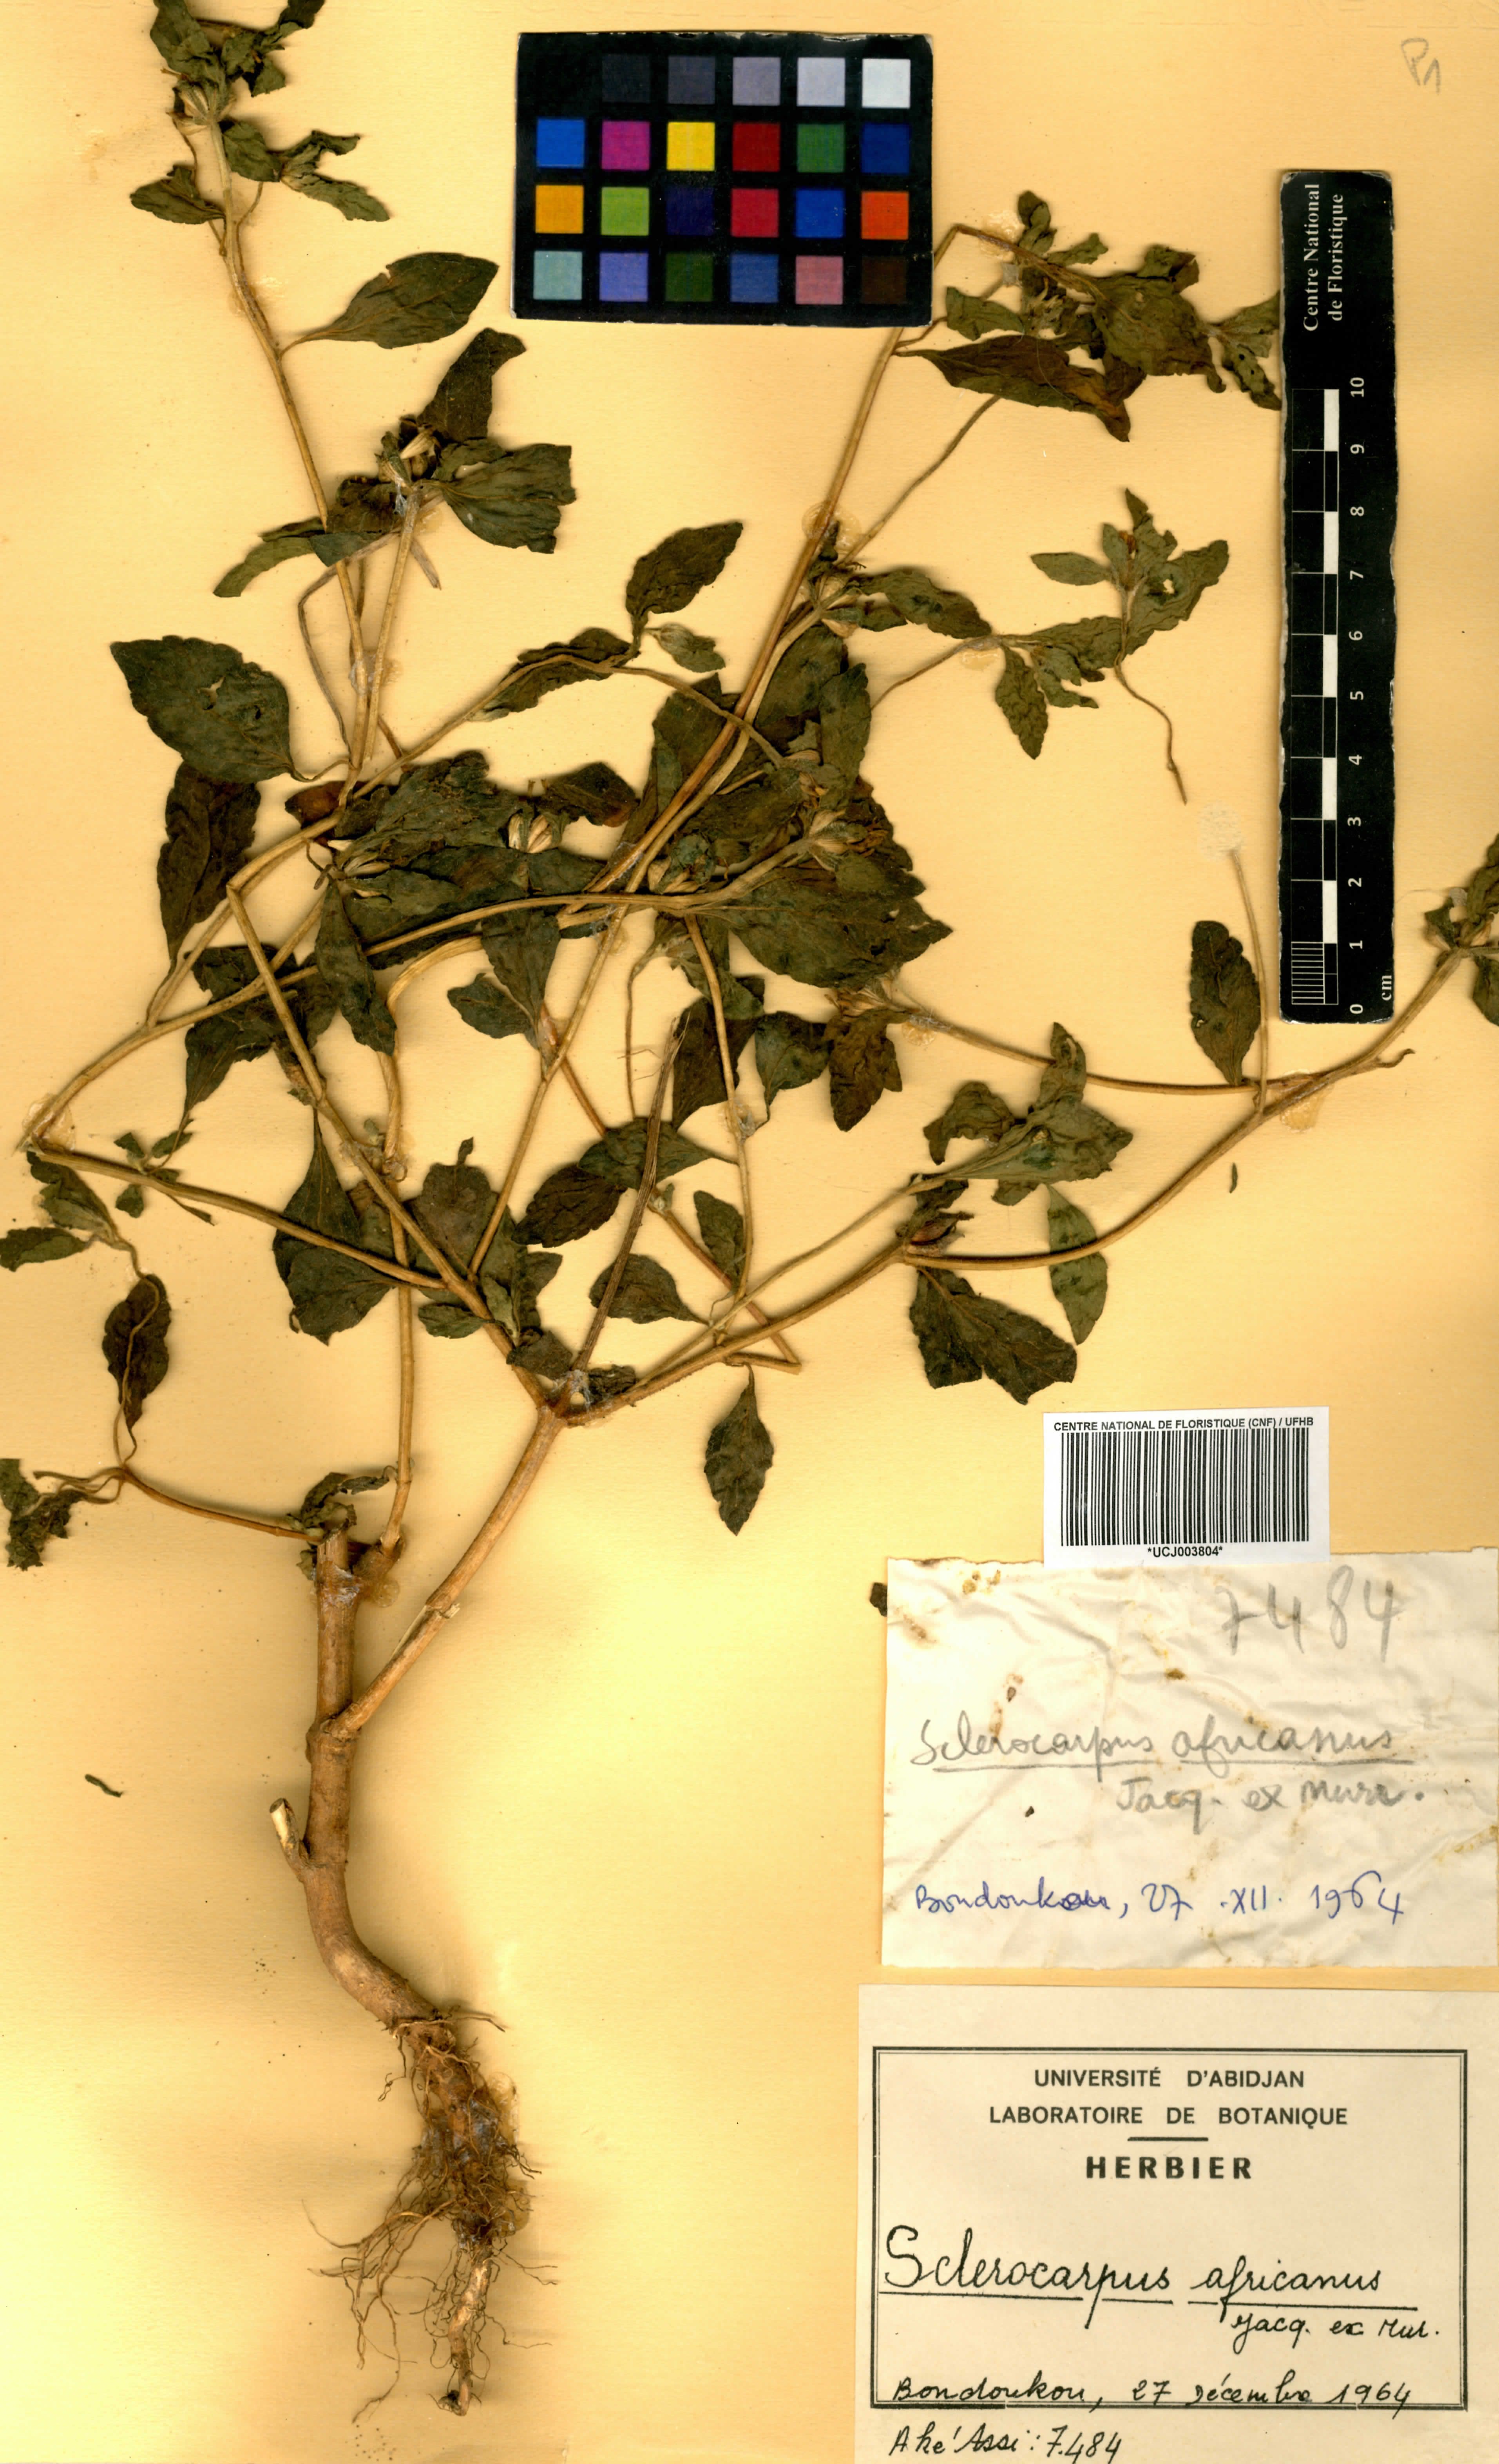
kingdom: Plantae
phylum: Tracheophyta
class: Magnoliopsida
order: Asterales
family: Asteraceae
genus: Sclerocarpus
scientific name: Sclerocarpus africanus
